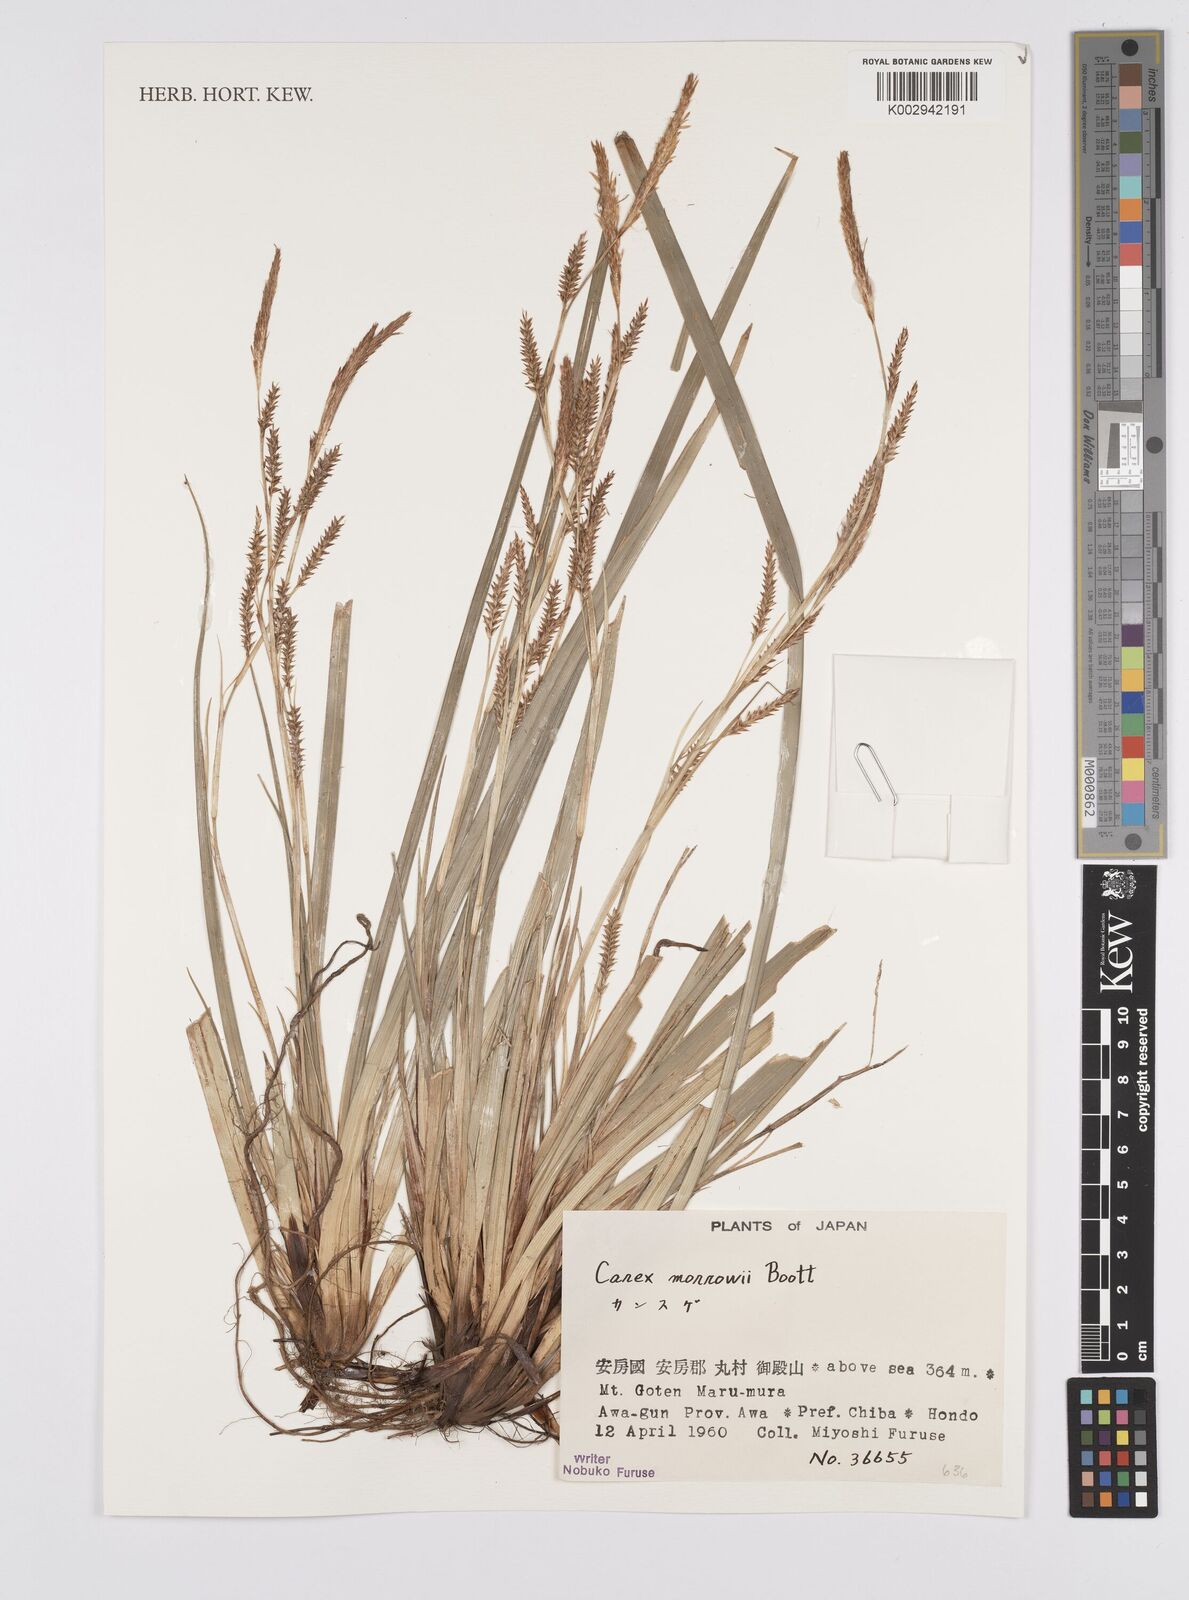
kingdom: Plantae
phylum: Tracheophyta
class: Liliopsida
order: Poales
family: Cyperaceae
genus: Carex
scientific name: Carex morrowii
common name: Japanese sedge
